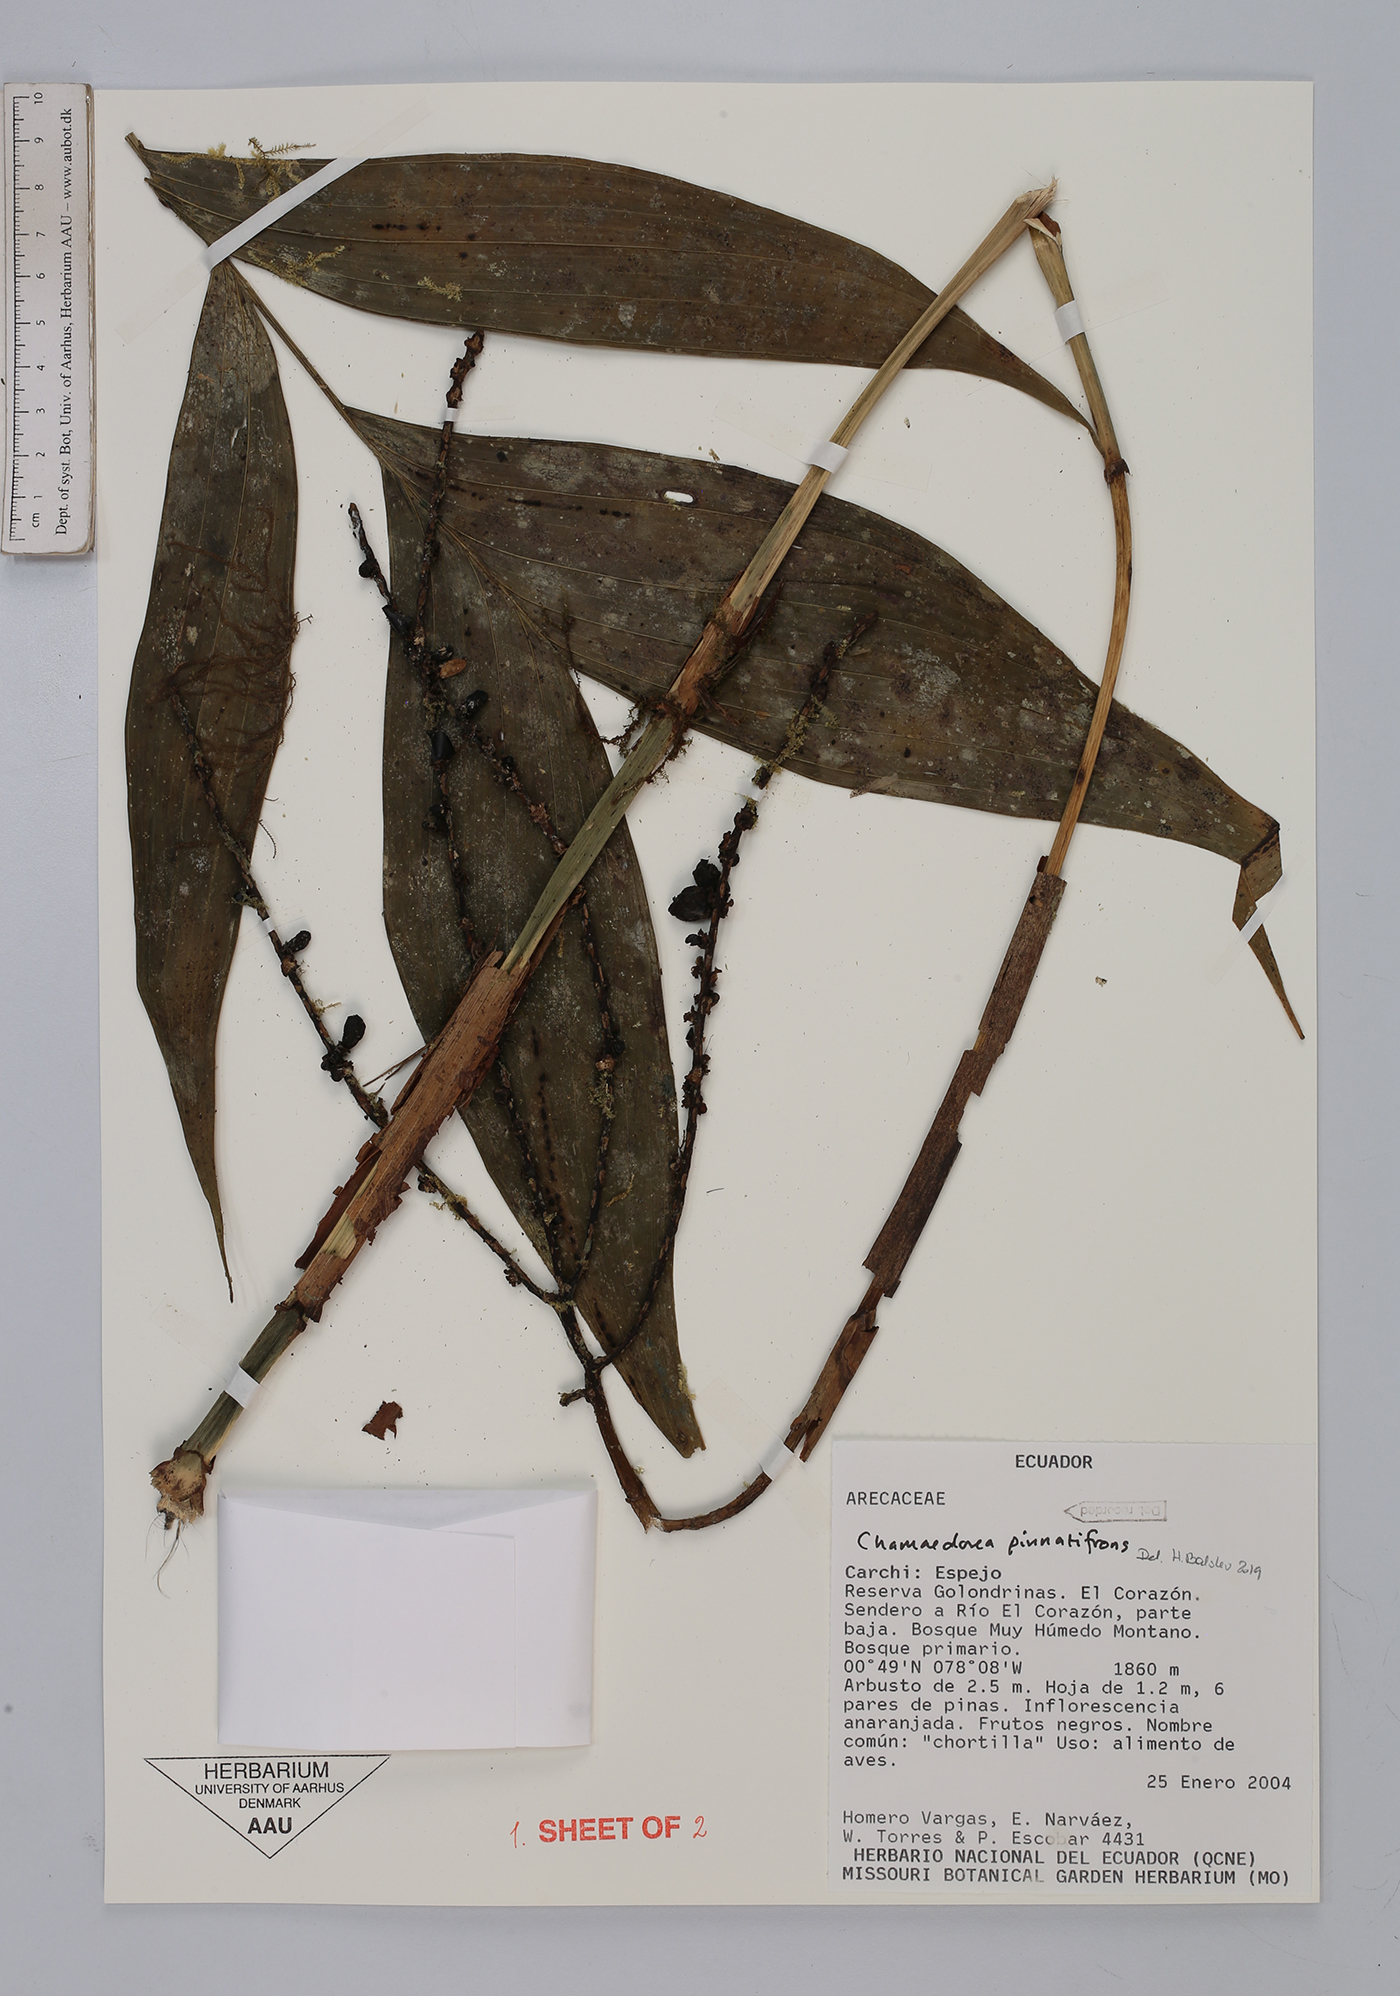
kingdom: Plantae
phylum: Tracheophyta
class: Liliopsida
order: Arecales
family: Arecaceae
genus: Chamaedorea
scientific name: Chamaedorea pinnatifrons
